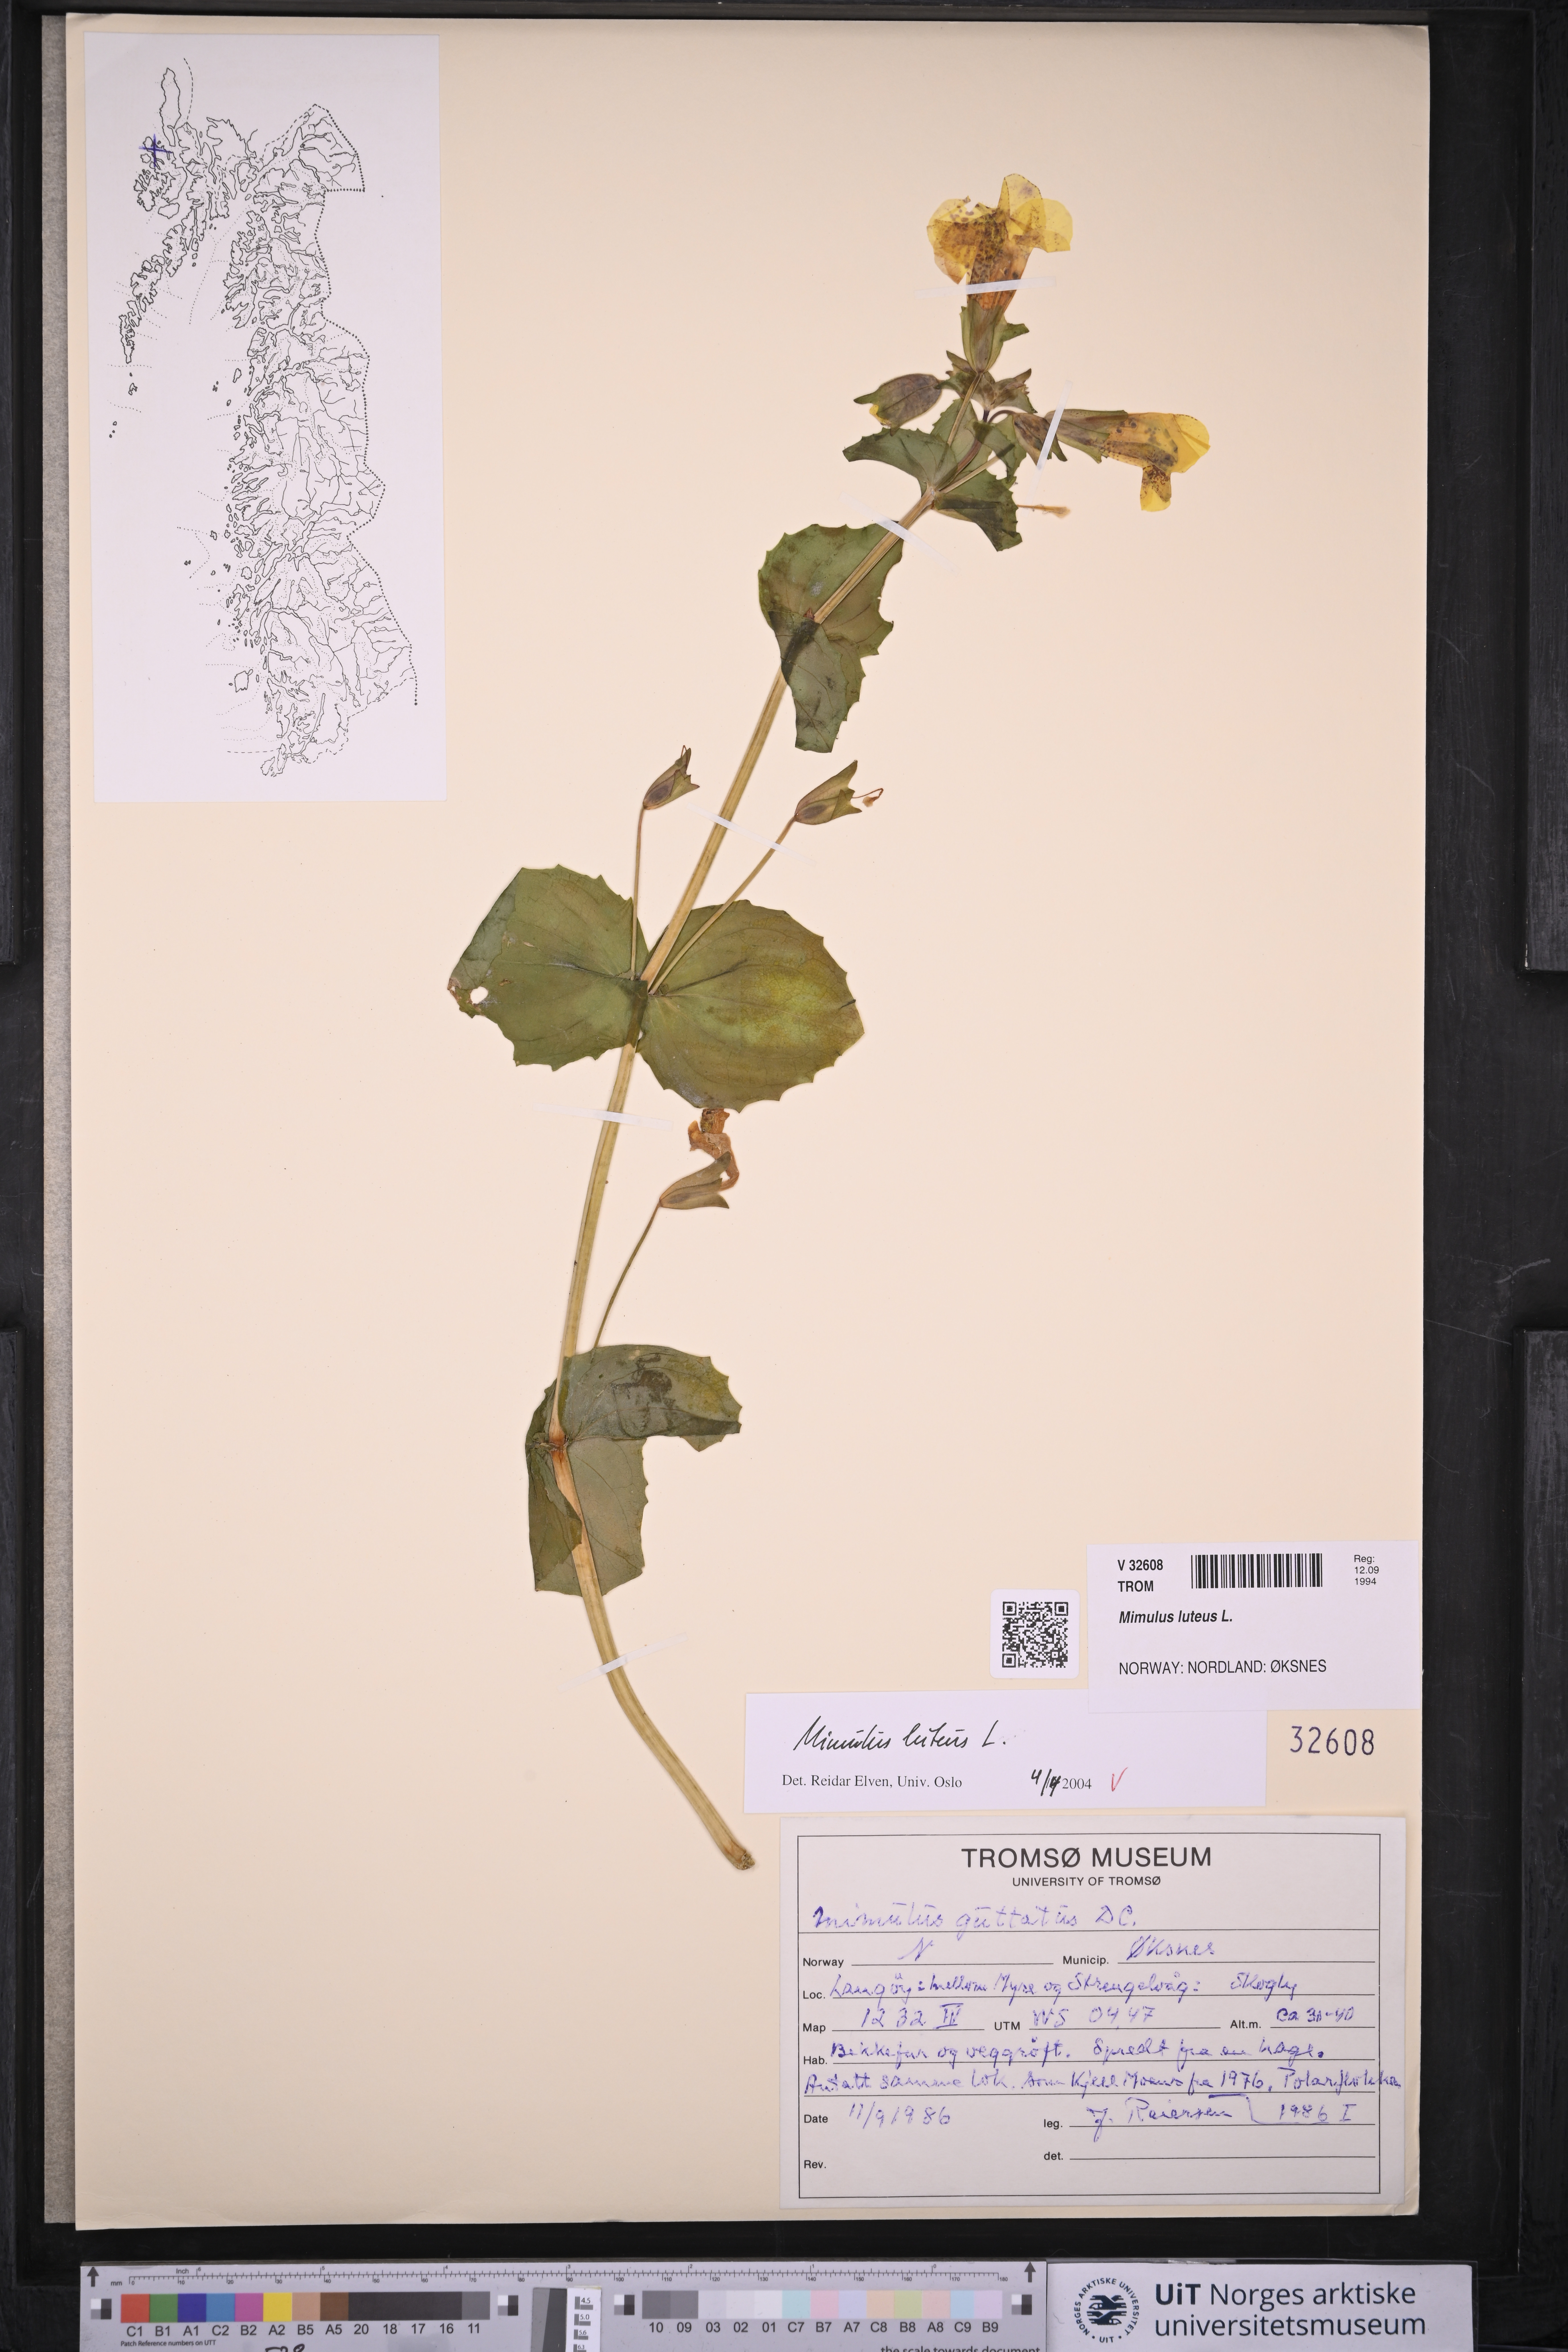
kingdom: Plantae
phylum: Tracheophyta
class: Magnoliopsida
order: Lamiales
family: Phrymaceae
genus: Erythranthe
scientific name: Erythranthe lutea
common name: Yellow monkey-flower
